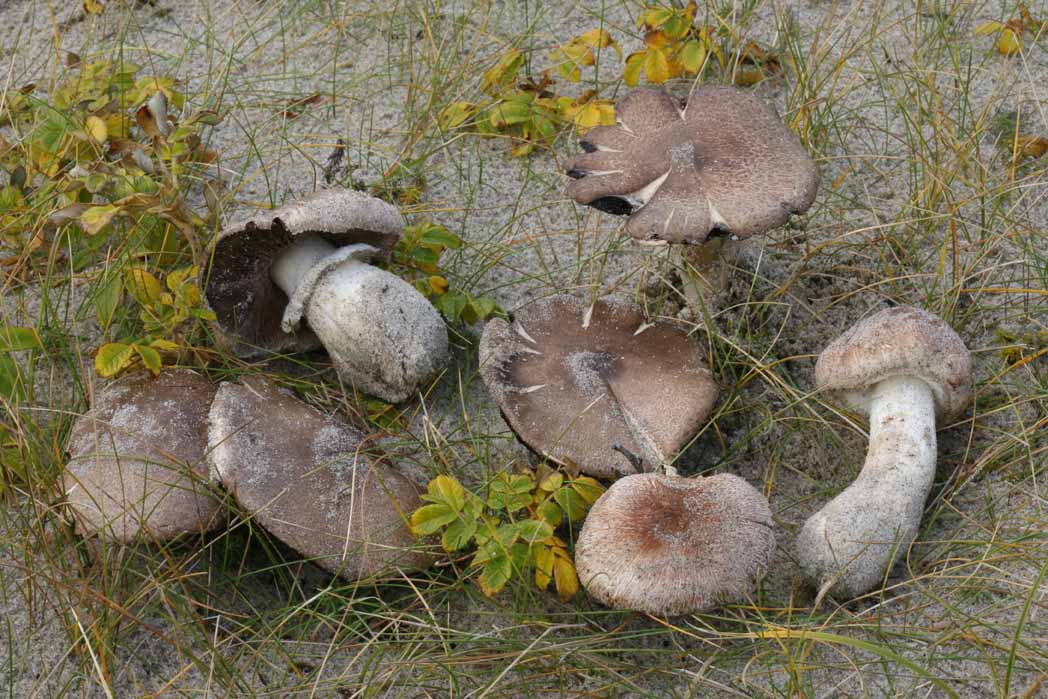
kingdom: Fungi
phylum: Basidiomycota
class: Agaricomycetes
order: Agaricales
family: Agaricaceae
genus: Agaricus
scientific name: Agaricus impudicus
